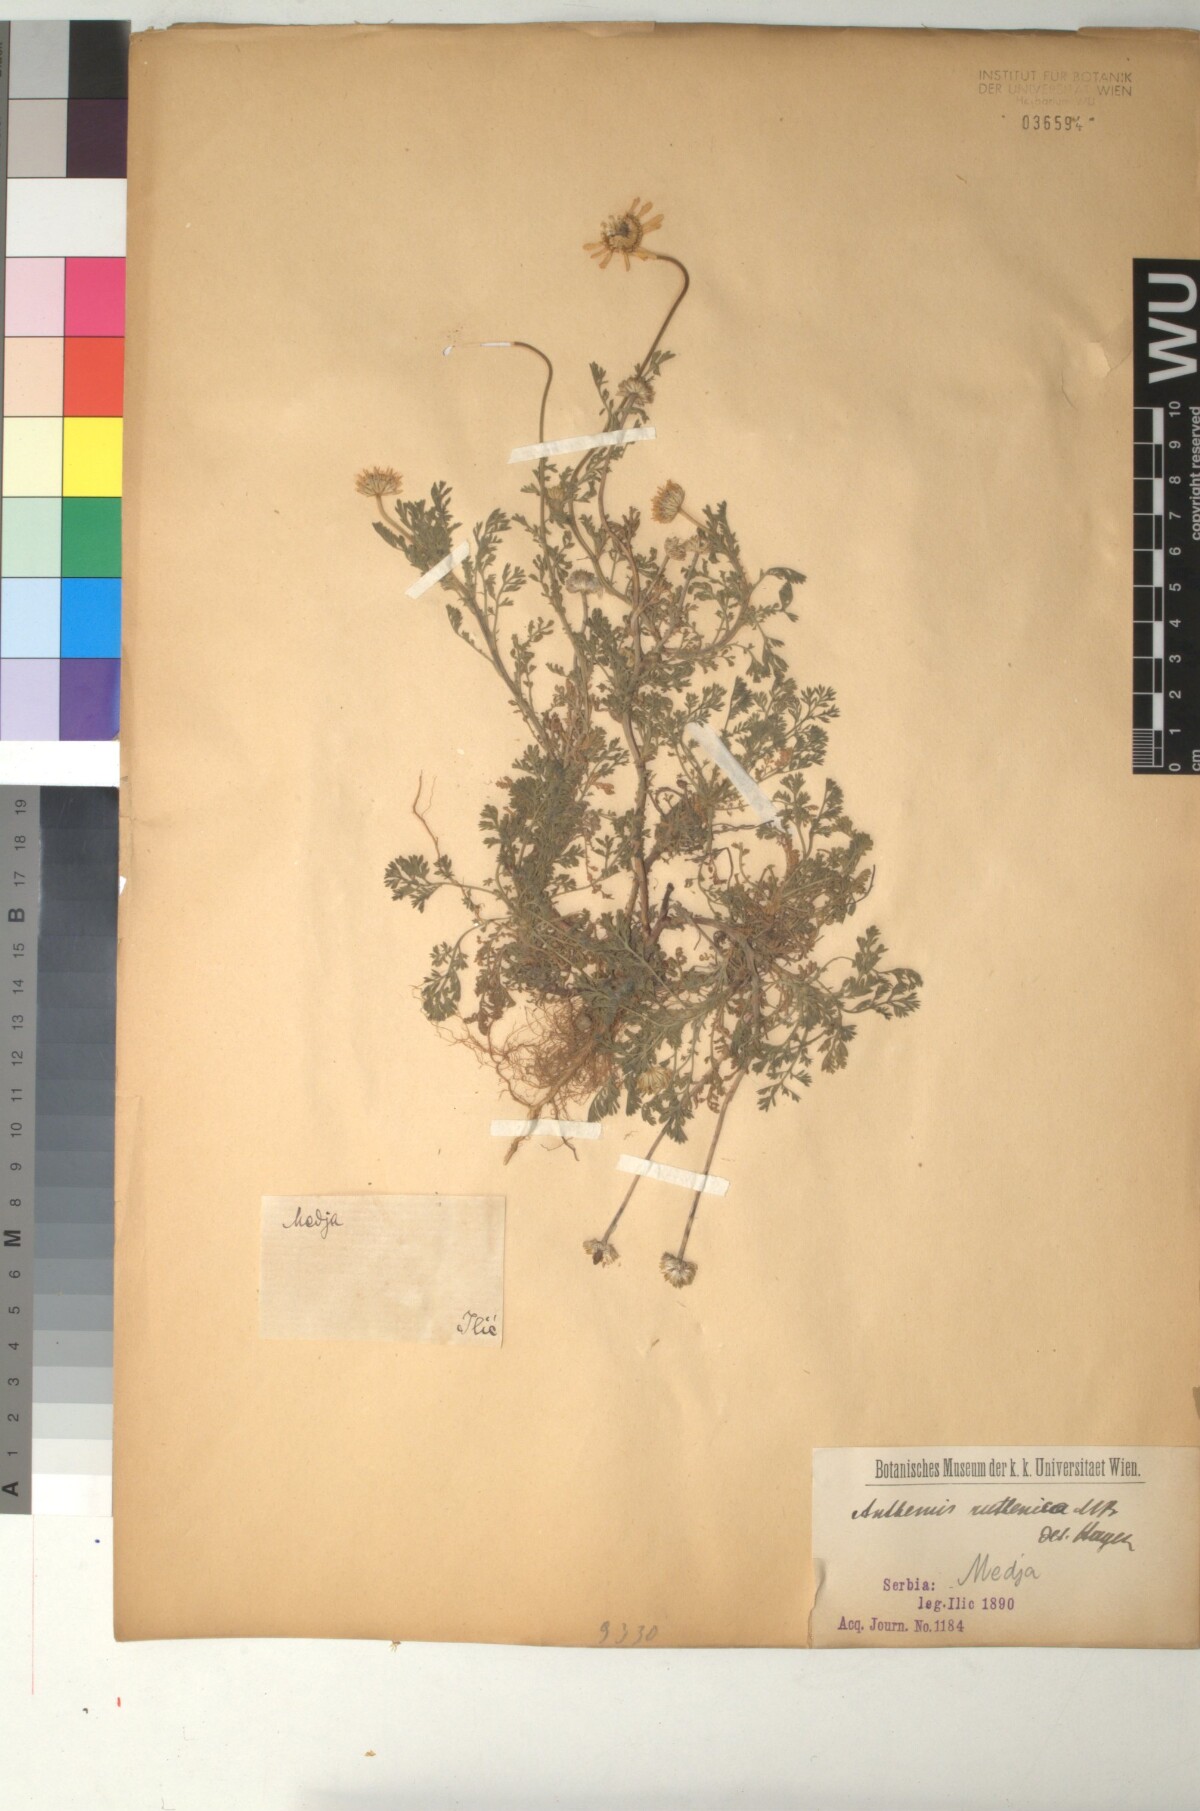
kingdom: Plantae
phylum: Tracheophyta
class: Magnoliopsida
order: Asterales
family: Asteraceae
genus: Anthemis
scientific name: Anthemis ruthenica
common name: Eastern chamomile
